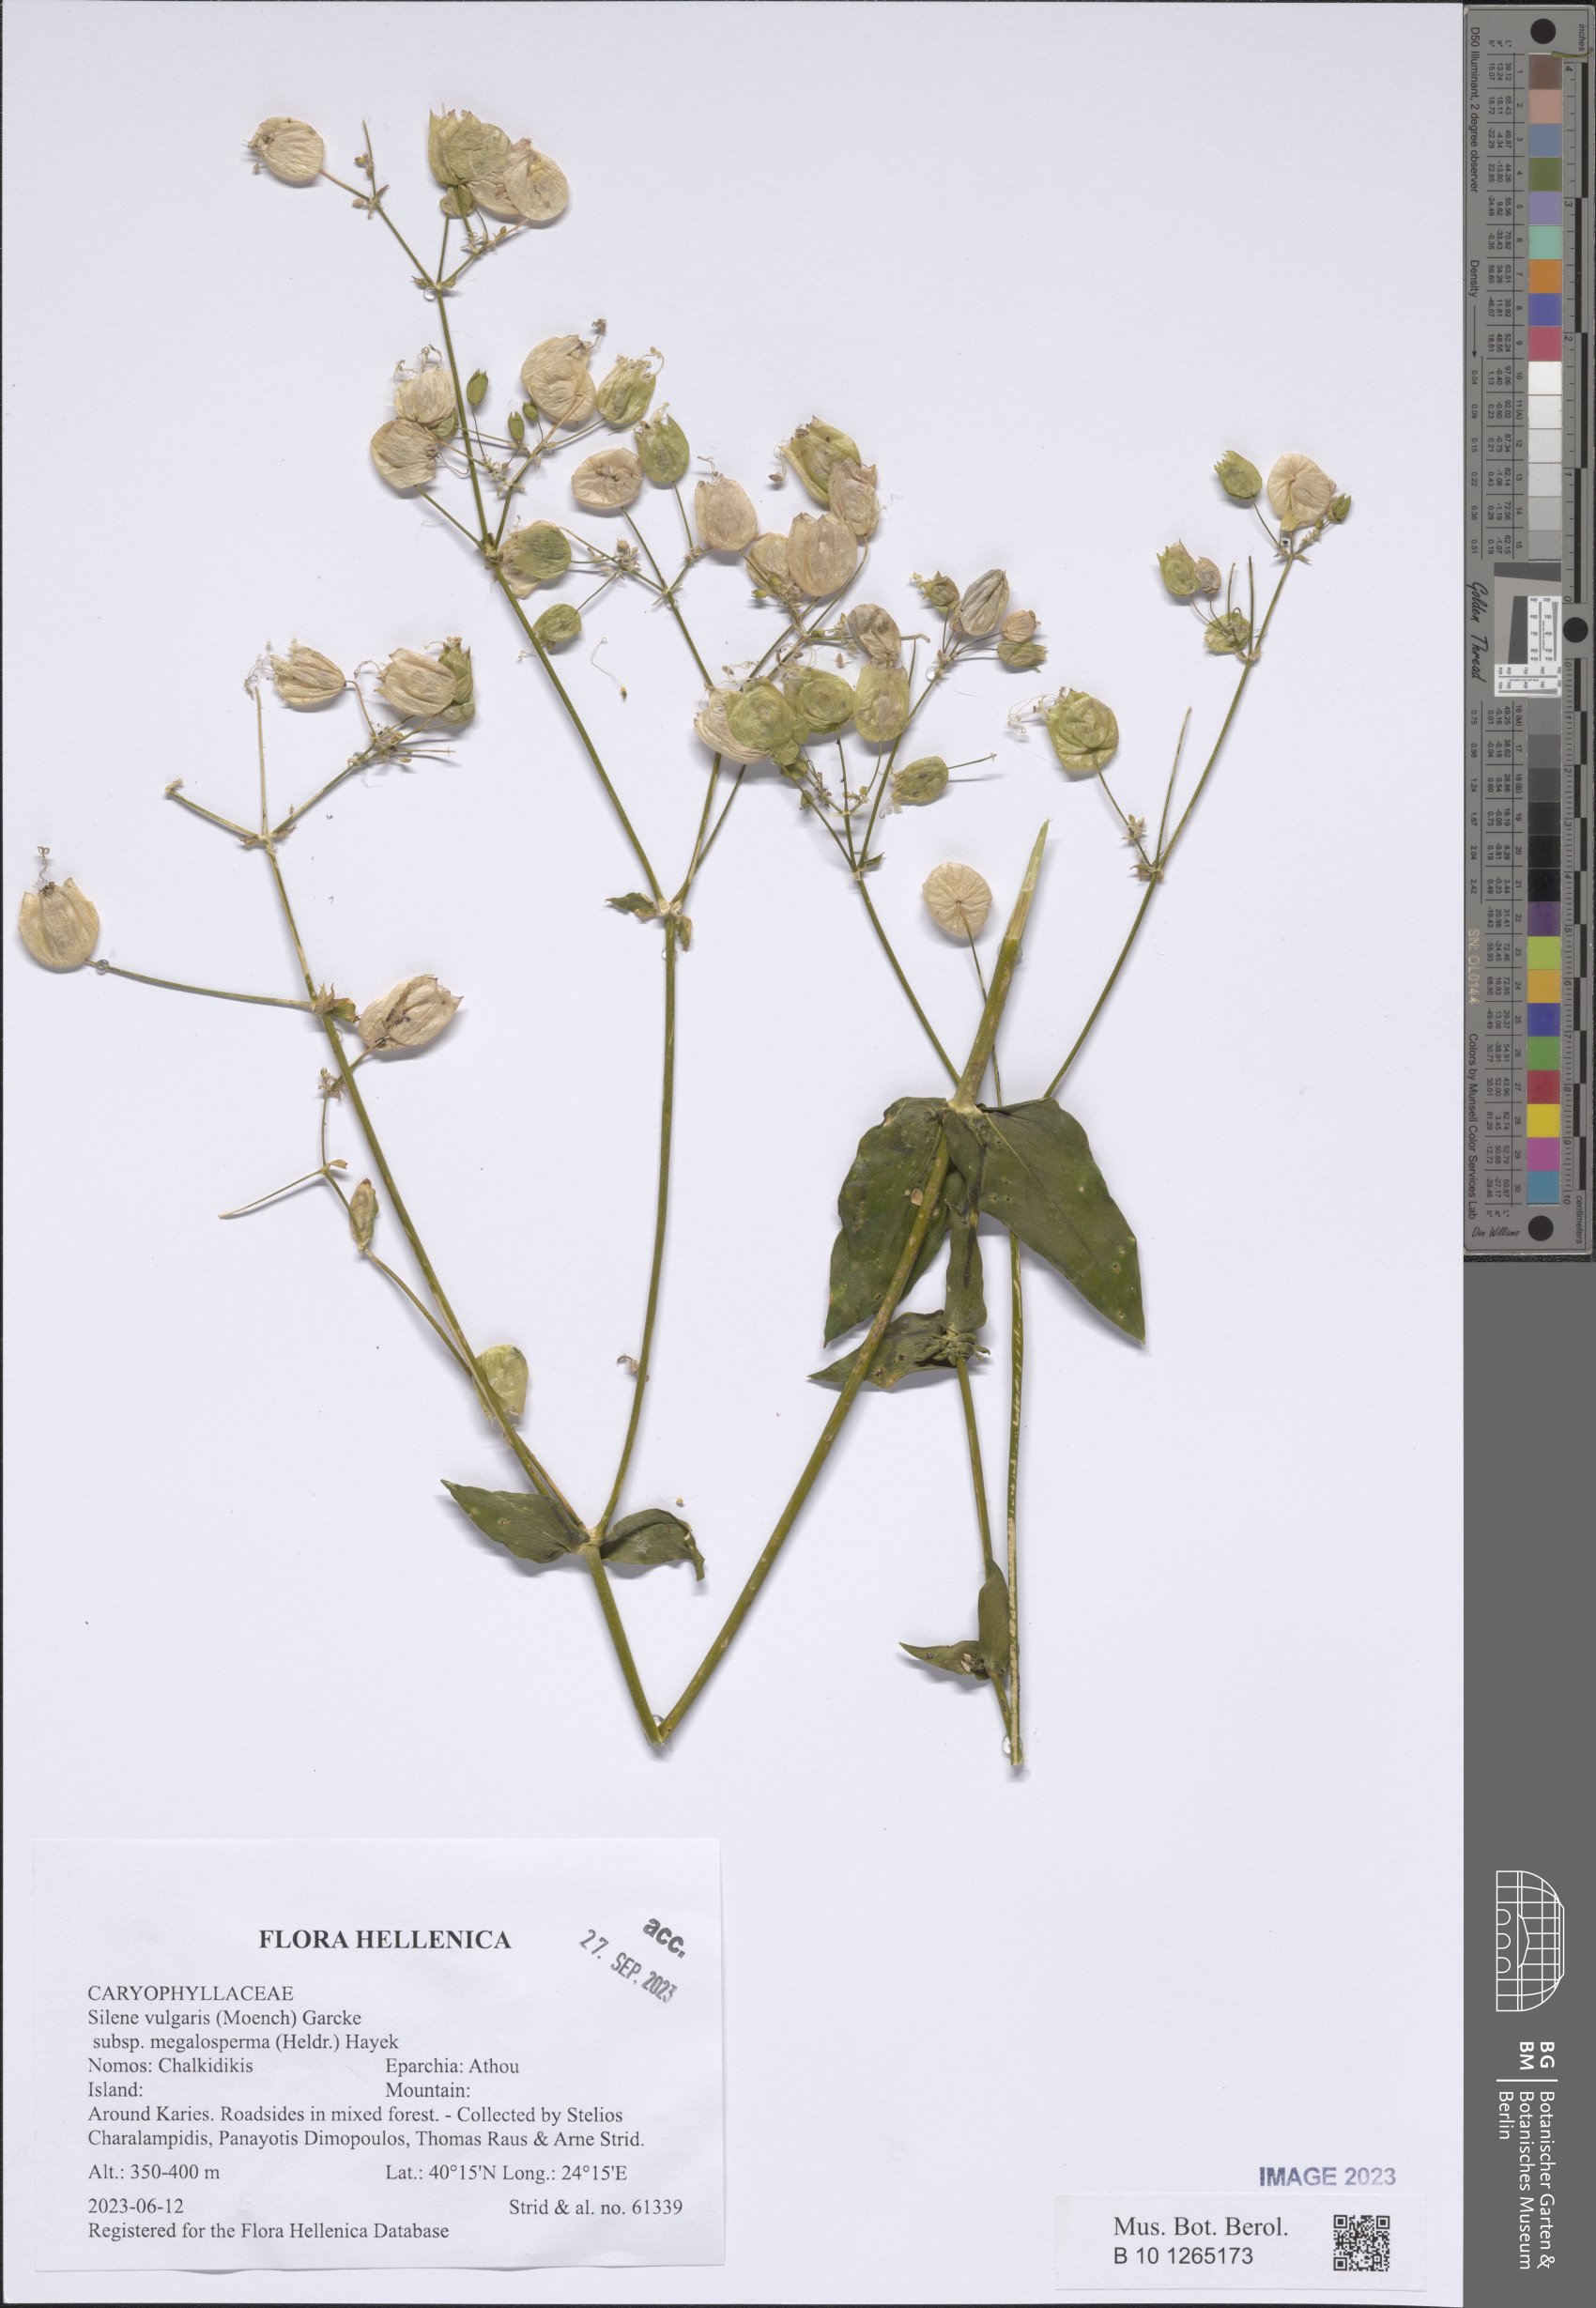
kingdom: Plantae
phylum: Tracheophyta
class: Magnoliopsida
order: Caryophyllales
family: Caryophyllaceae
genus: Silene
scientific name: Silene vulgaris
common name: Bladder campion
